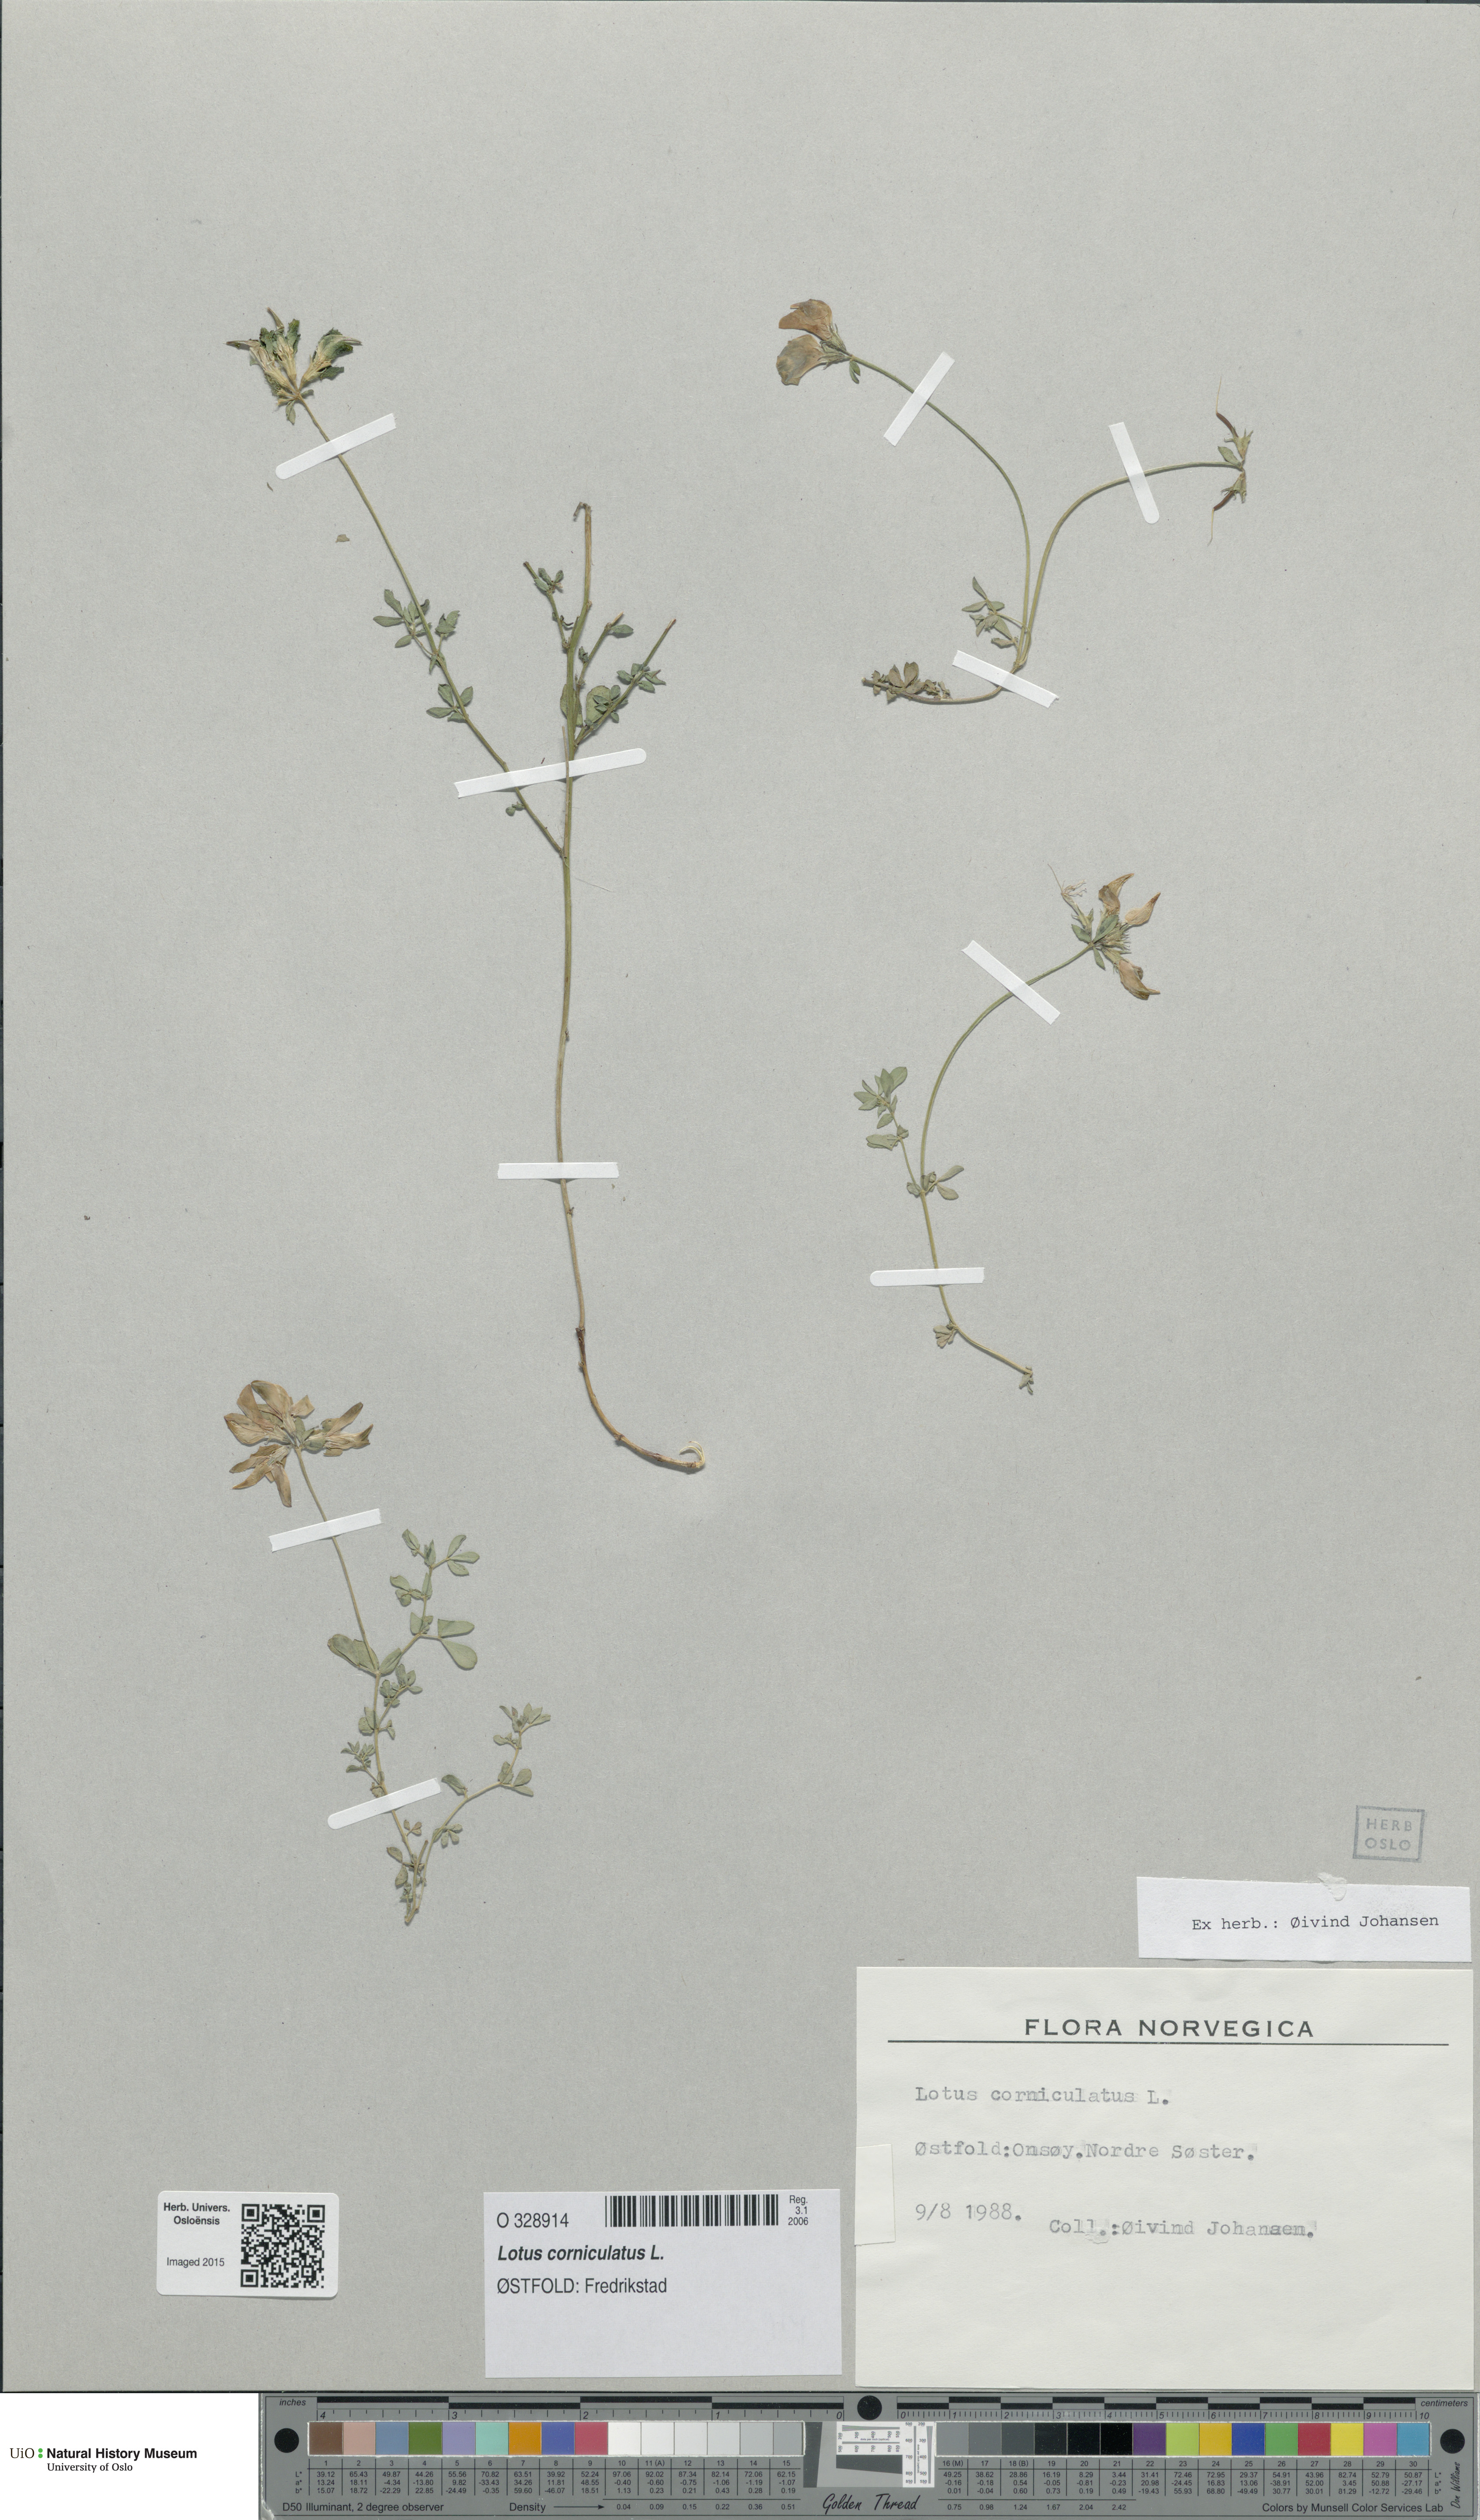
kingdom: Plantae
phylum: Tracheophyta
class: Magnoliopsida
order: Fabales
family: Fabaceae
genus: Lotus
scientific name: Lotus corniculatus
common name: Common bird's-foot-trefoil
